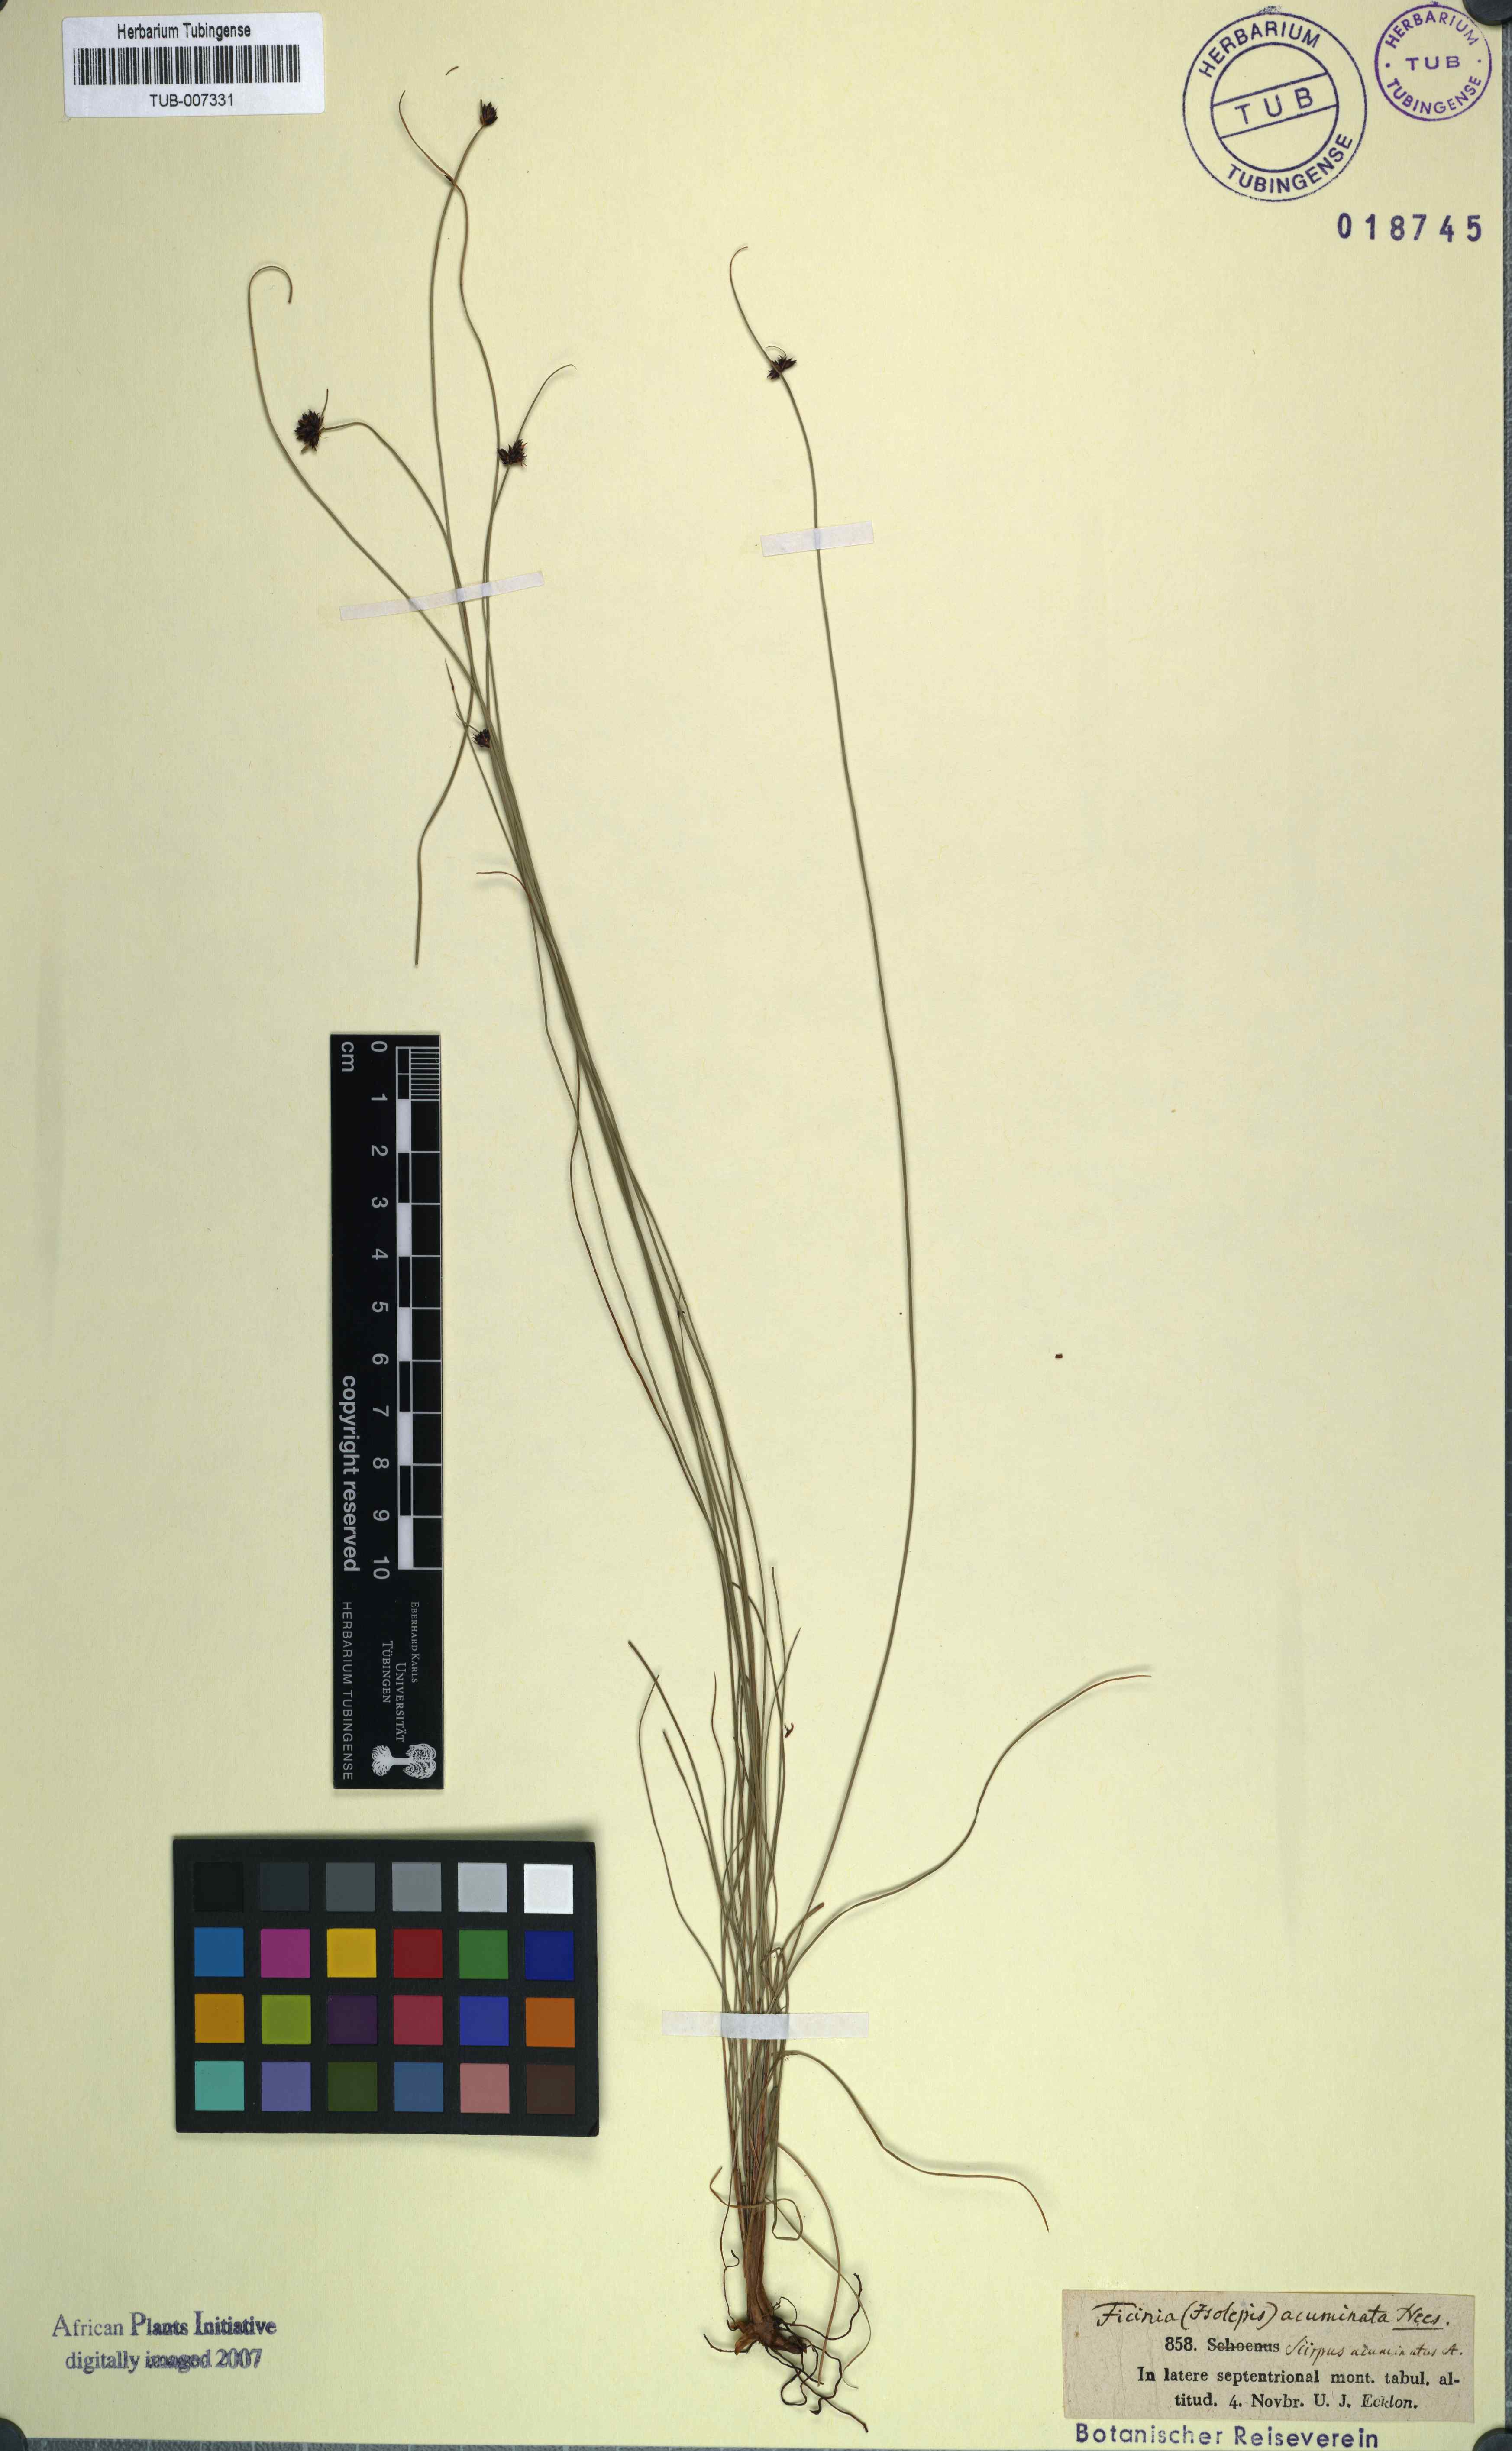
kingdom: Plantae
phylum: Tracheophyta
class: Liliopsida
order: Poales
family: Cyperaceae
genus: Ficinia
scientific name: Ficinia acuminata
